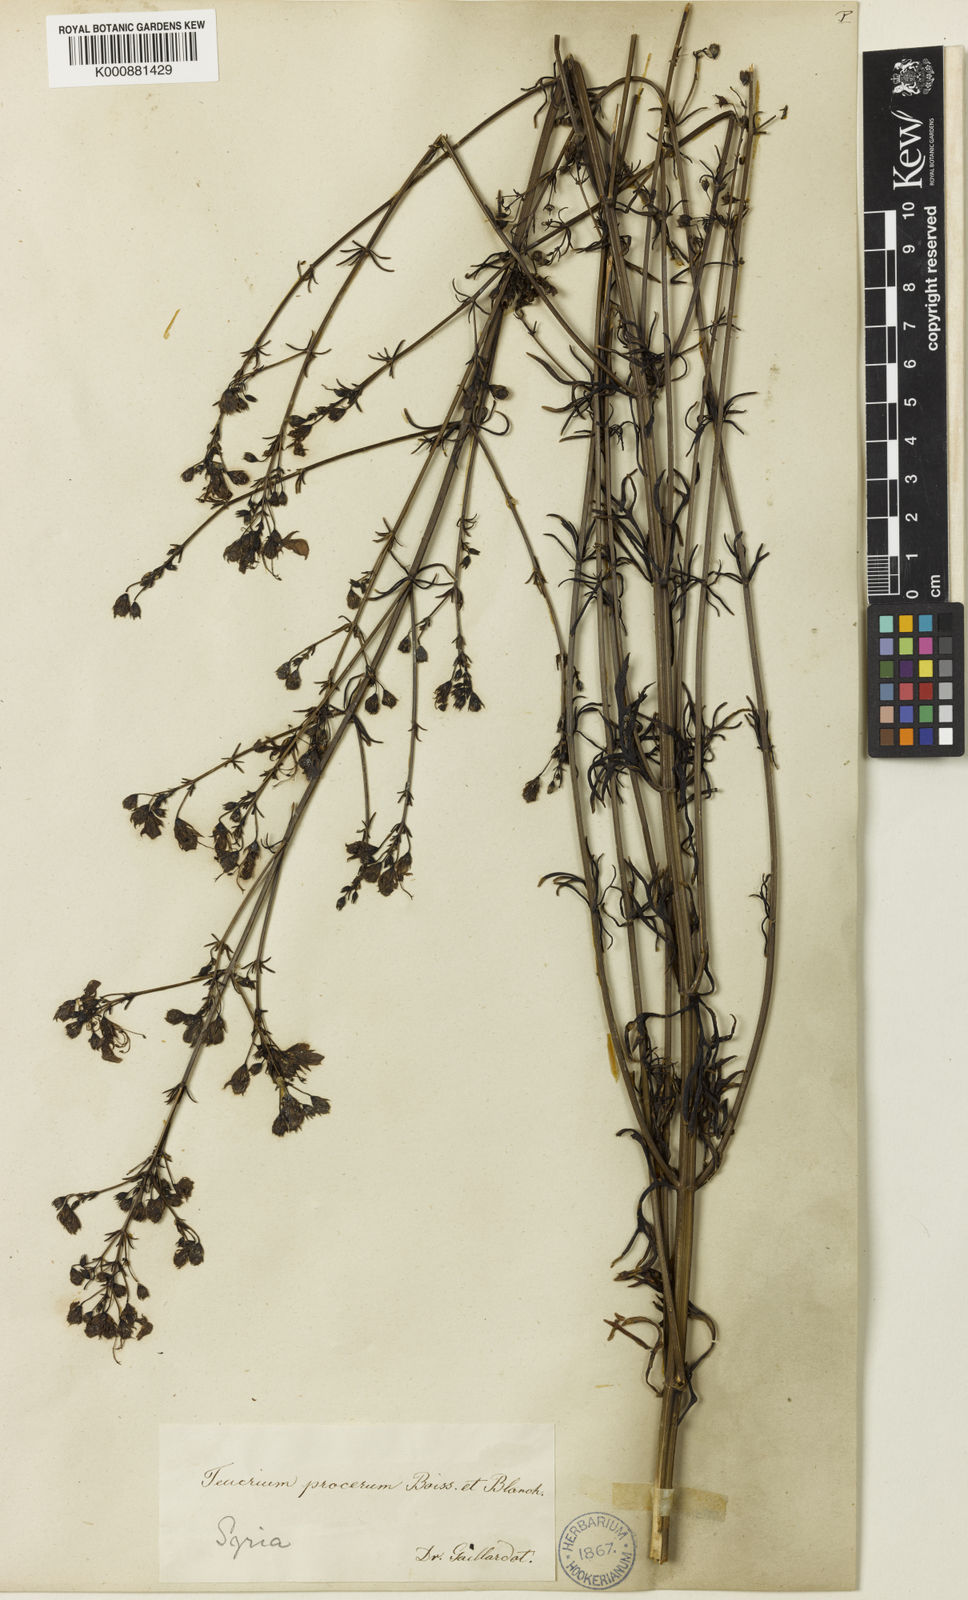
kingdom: Plantae
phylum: Tracheophyta
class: Magnoliopsida
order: Lamiales
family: Lamiaceae
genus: Teucrium
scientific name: Teucrium procerum
